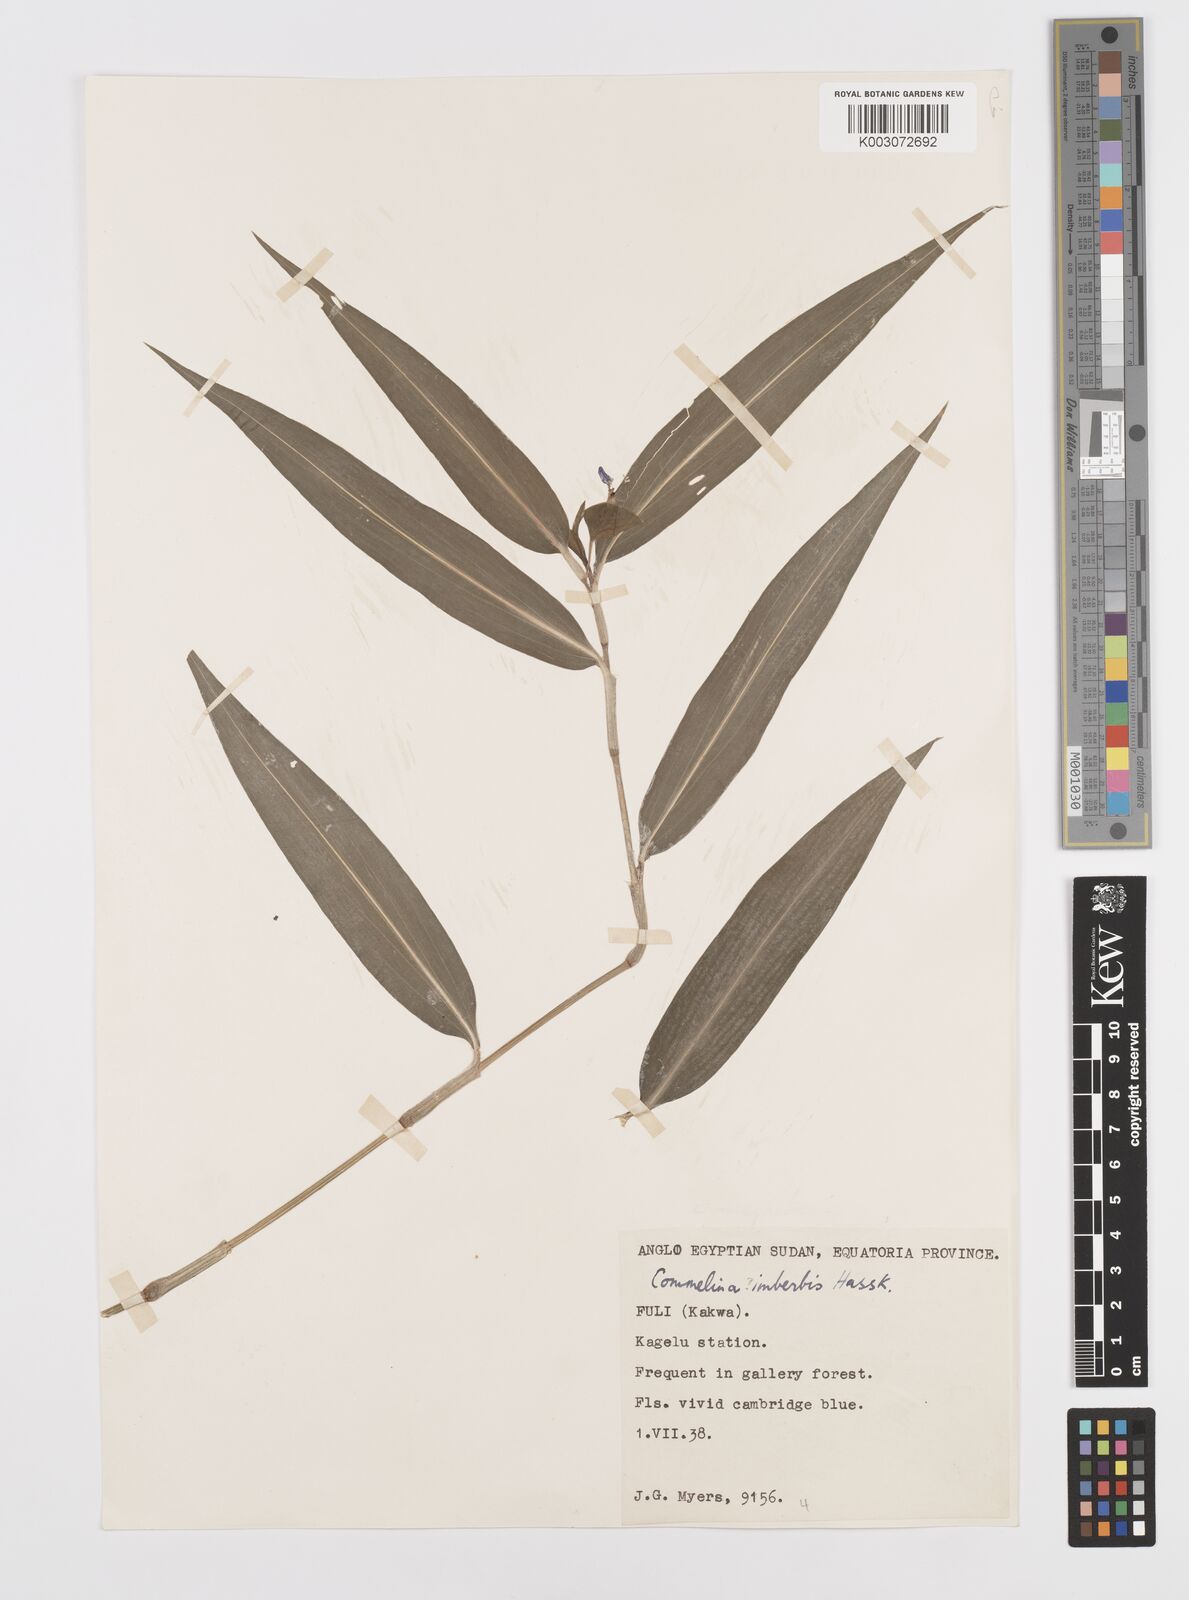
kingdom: Plantae
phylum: Tracheophyta
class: Liliopsida
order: Commelinales
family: Commelinaceae
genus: Commelina
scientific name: Commelina imberbis
